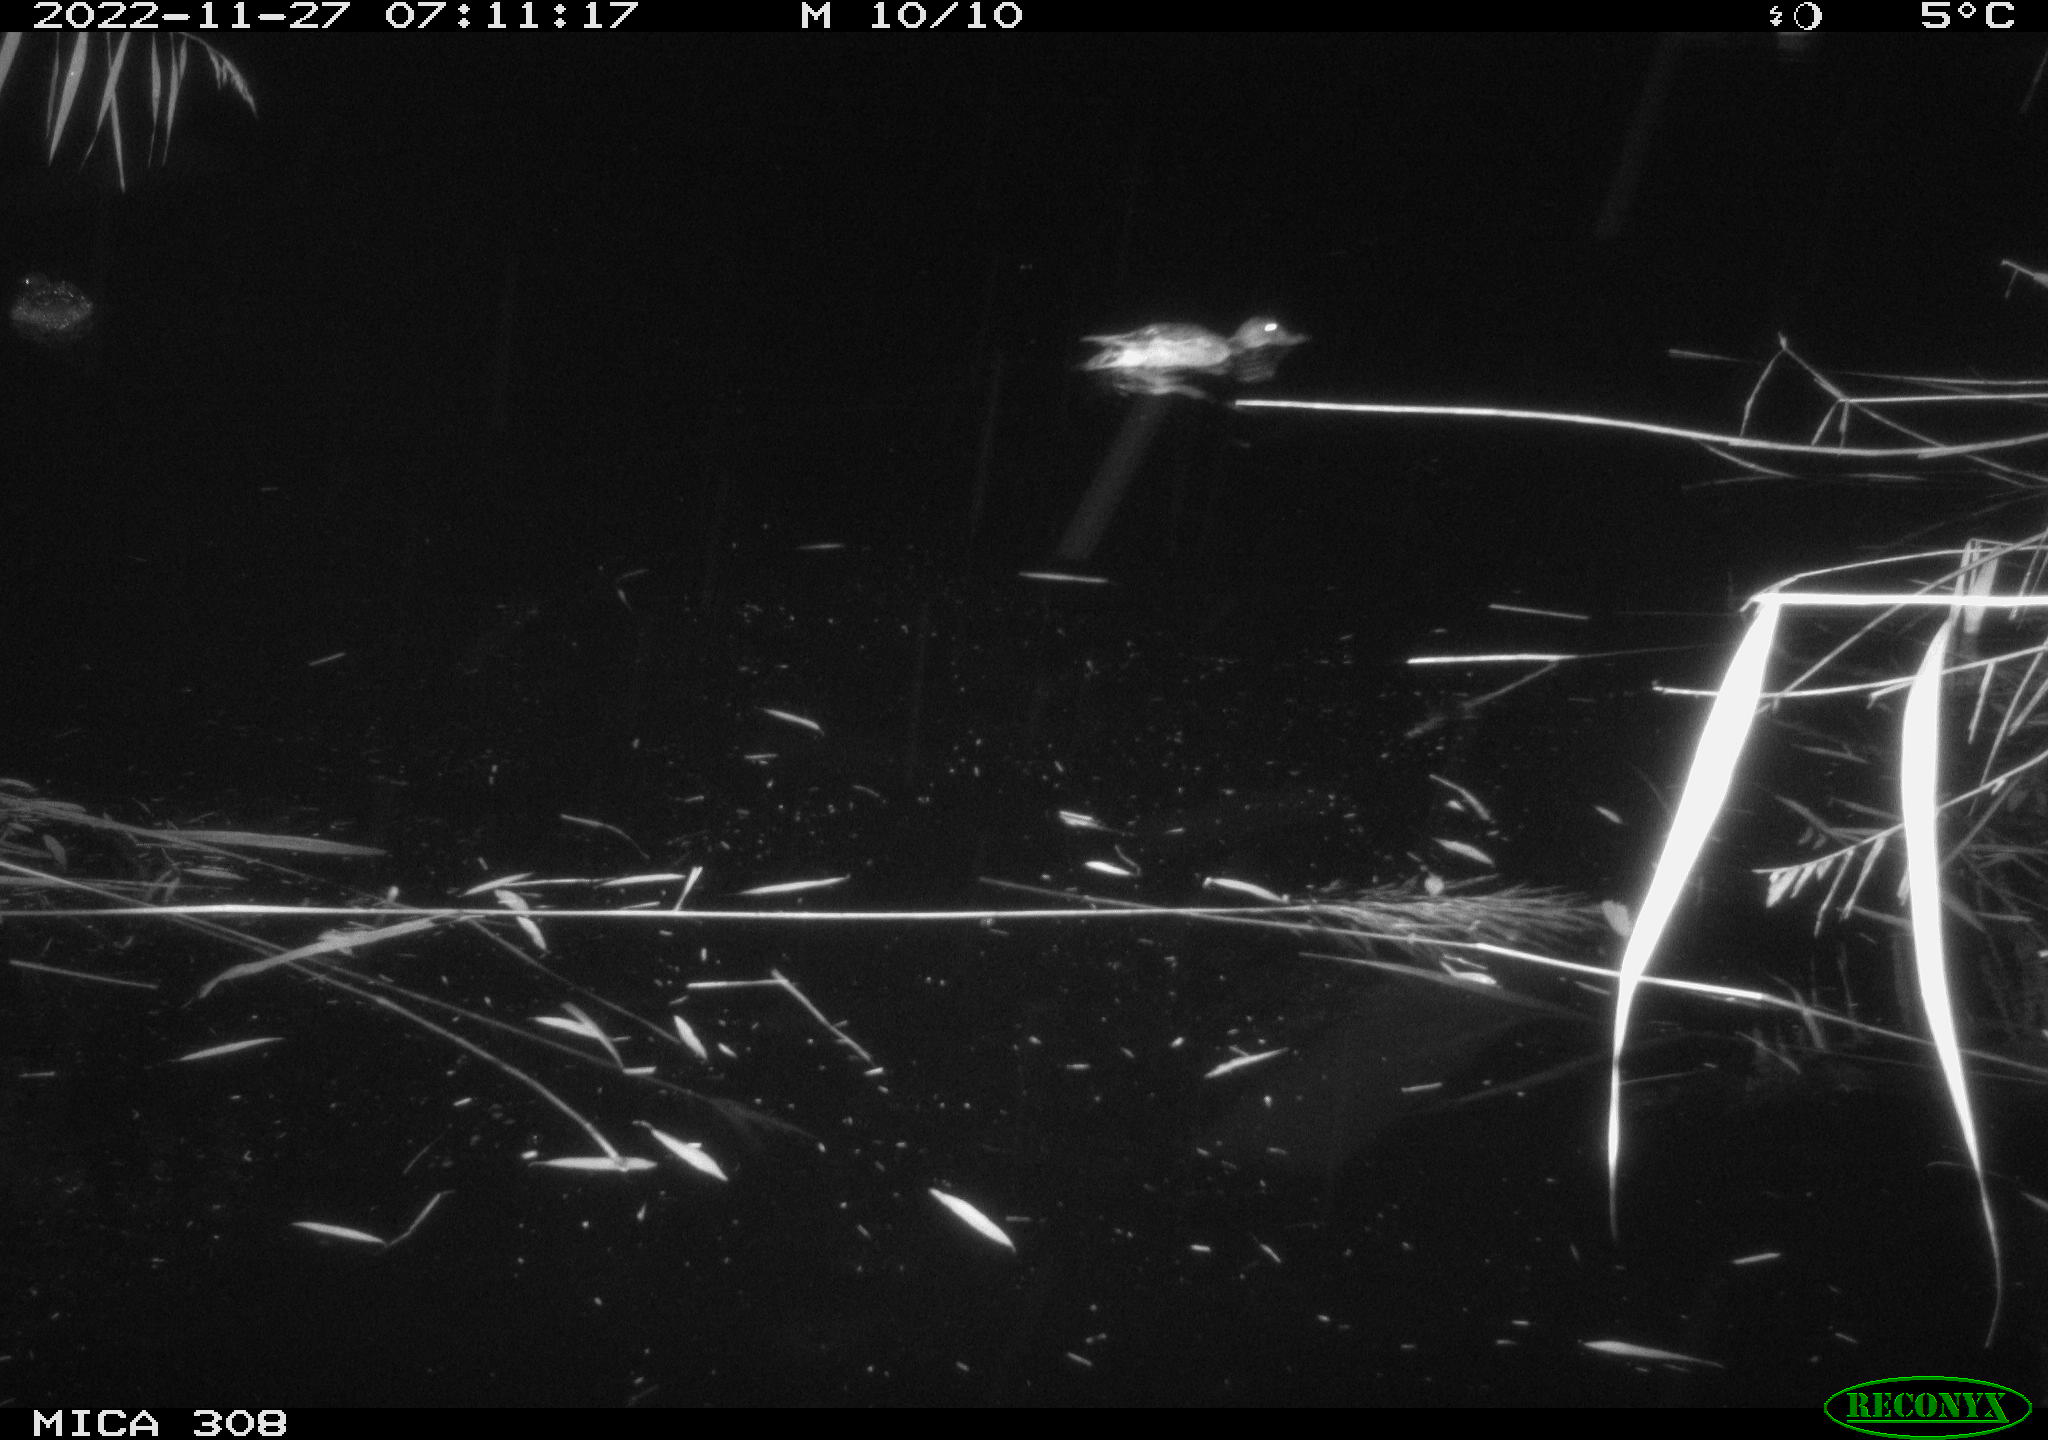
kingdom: Animalia
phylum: Chordata
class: Aves
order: Anseriformes
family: Anatidae
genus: Anas
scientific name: Anas
